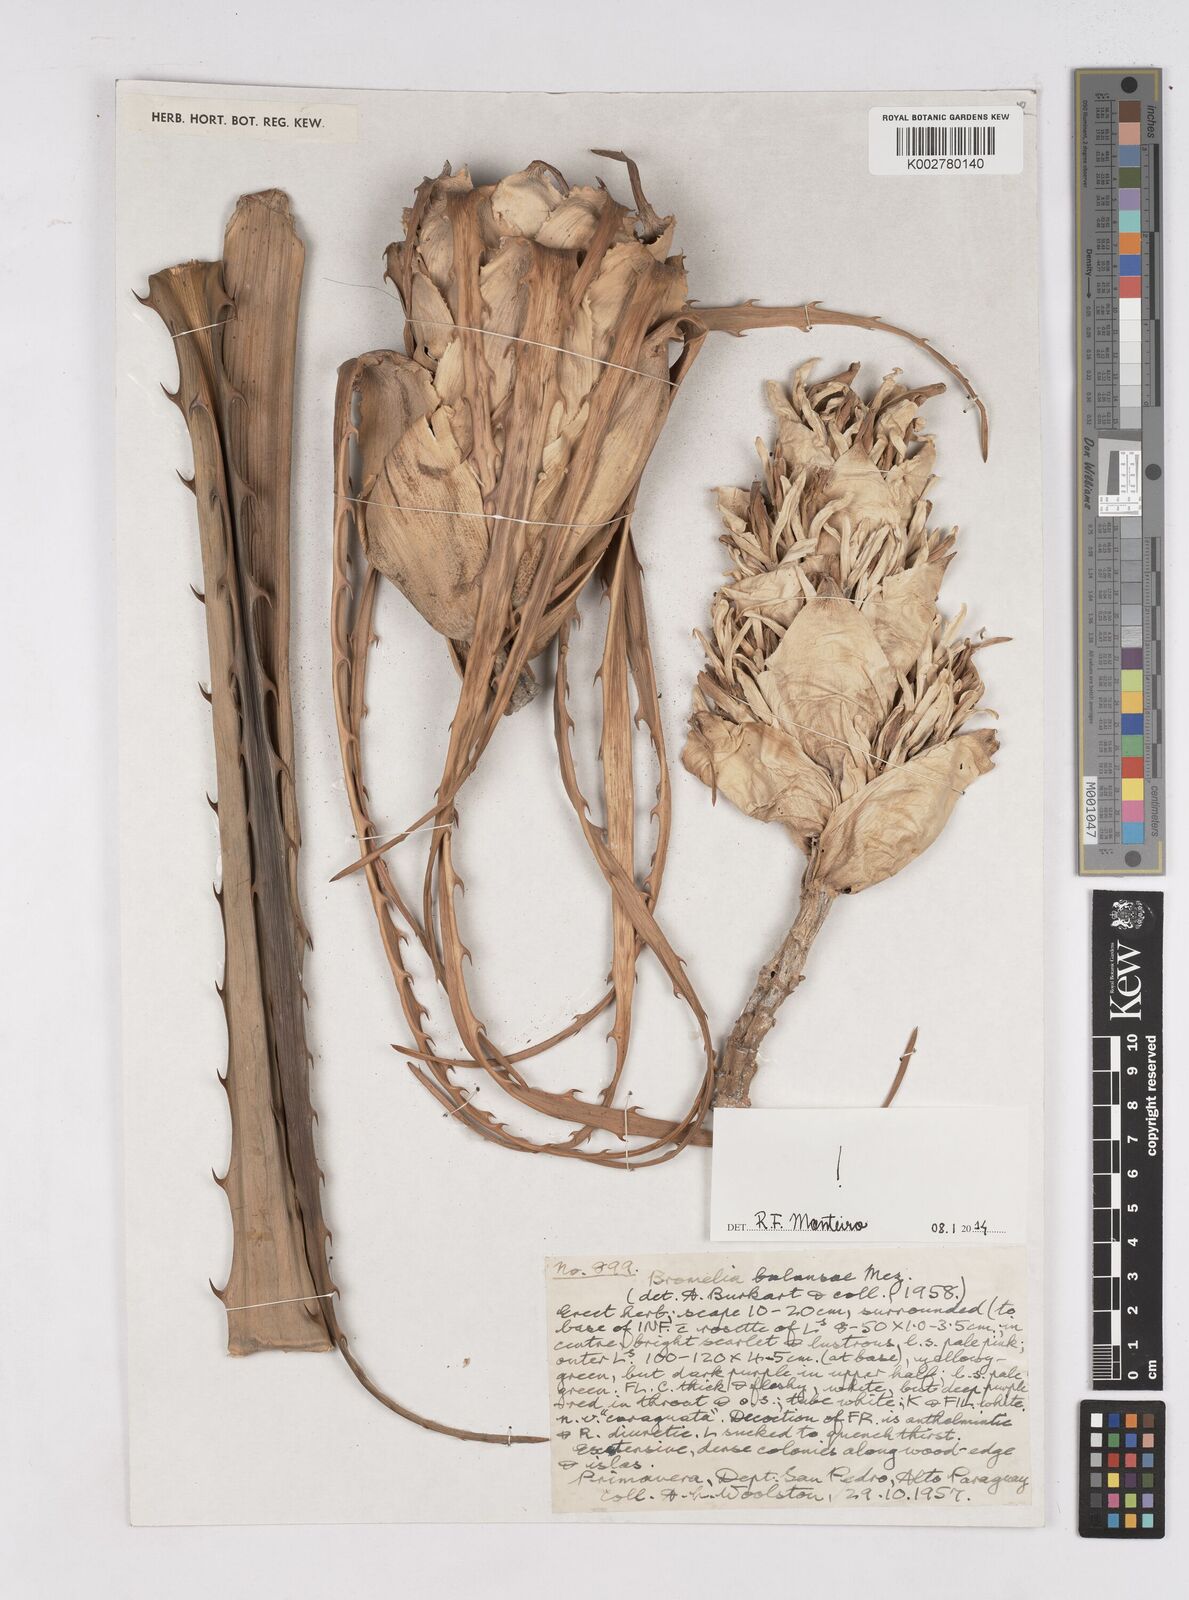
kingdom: Plantae
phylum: Tracheophyta
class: Liliopsida
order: Poales
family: Bromeliaceae
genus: Bromelia
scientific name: Bromelia balansae
